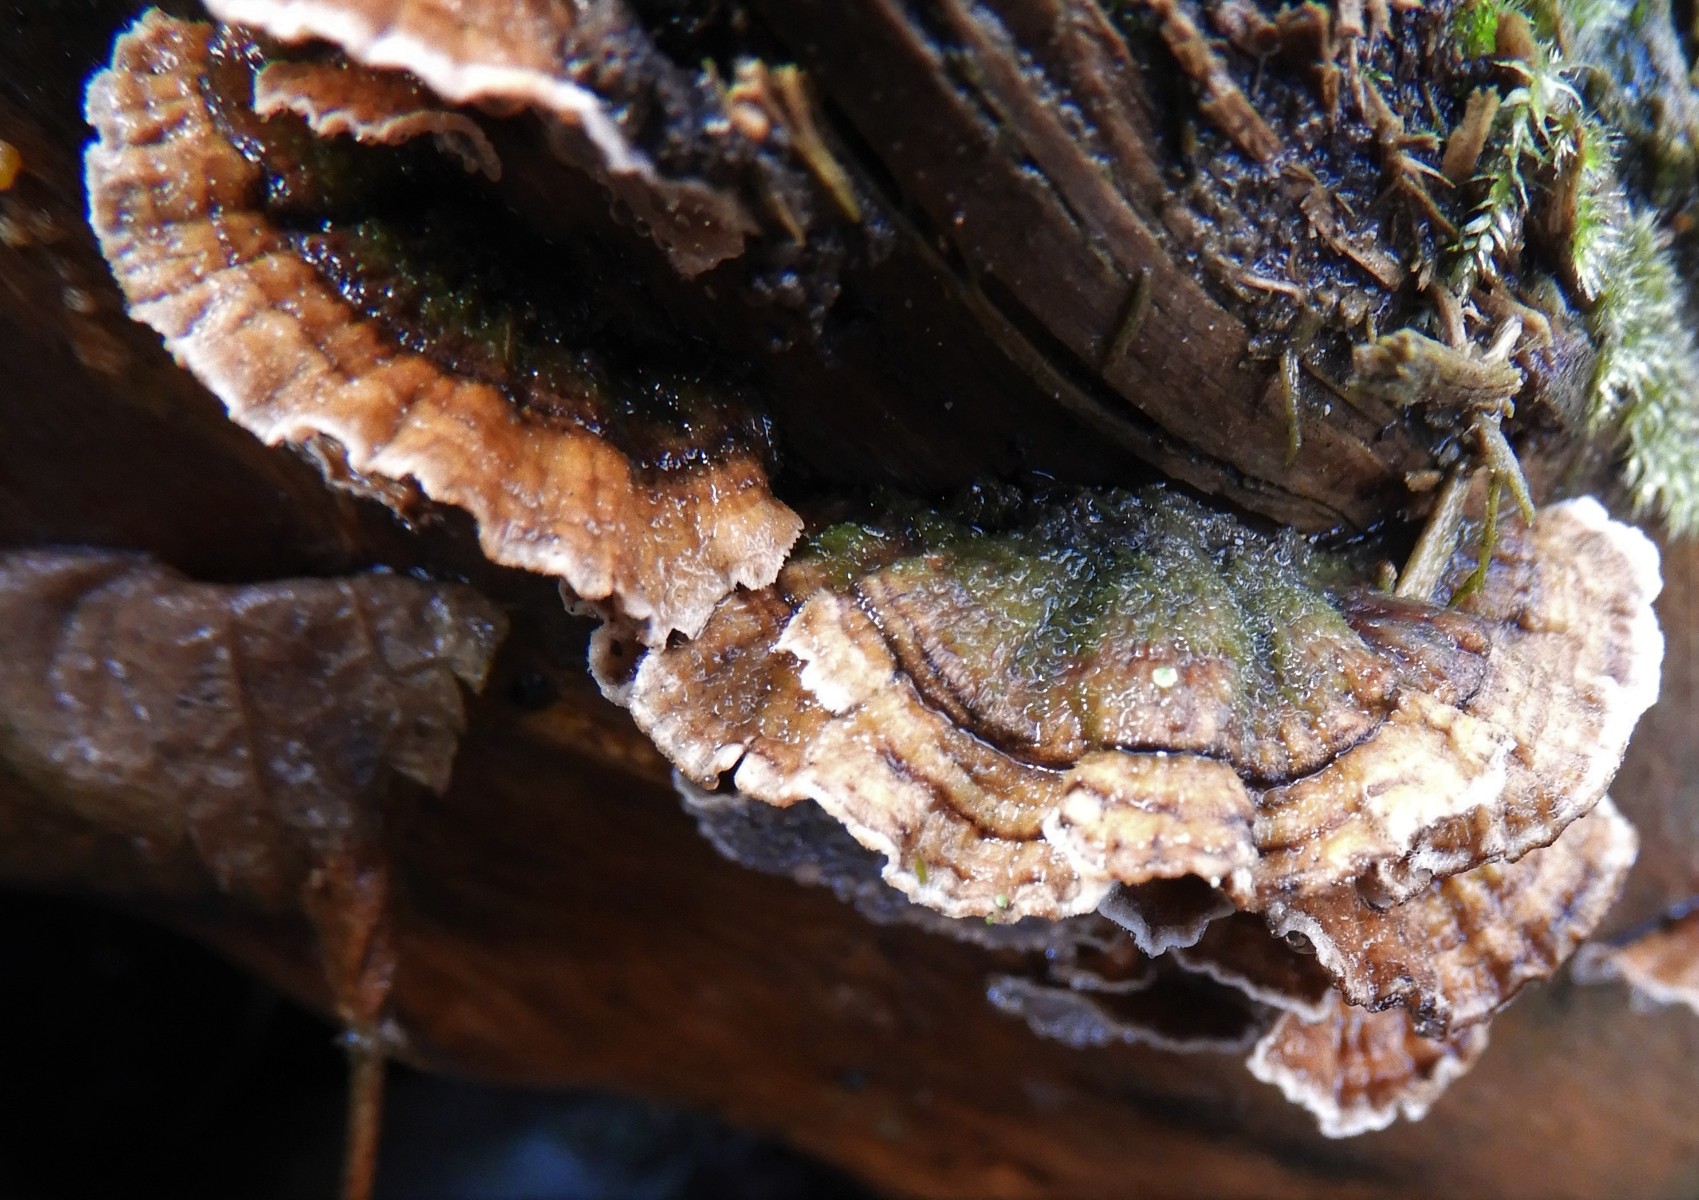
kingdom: Fungi
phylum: Basidiomycota
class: Agaricomycetes
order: Russulales
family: Stereaceae
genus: Stereum
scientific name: Stereum subtomentosum
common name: smuk lædersvamp
